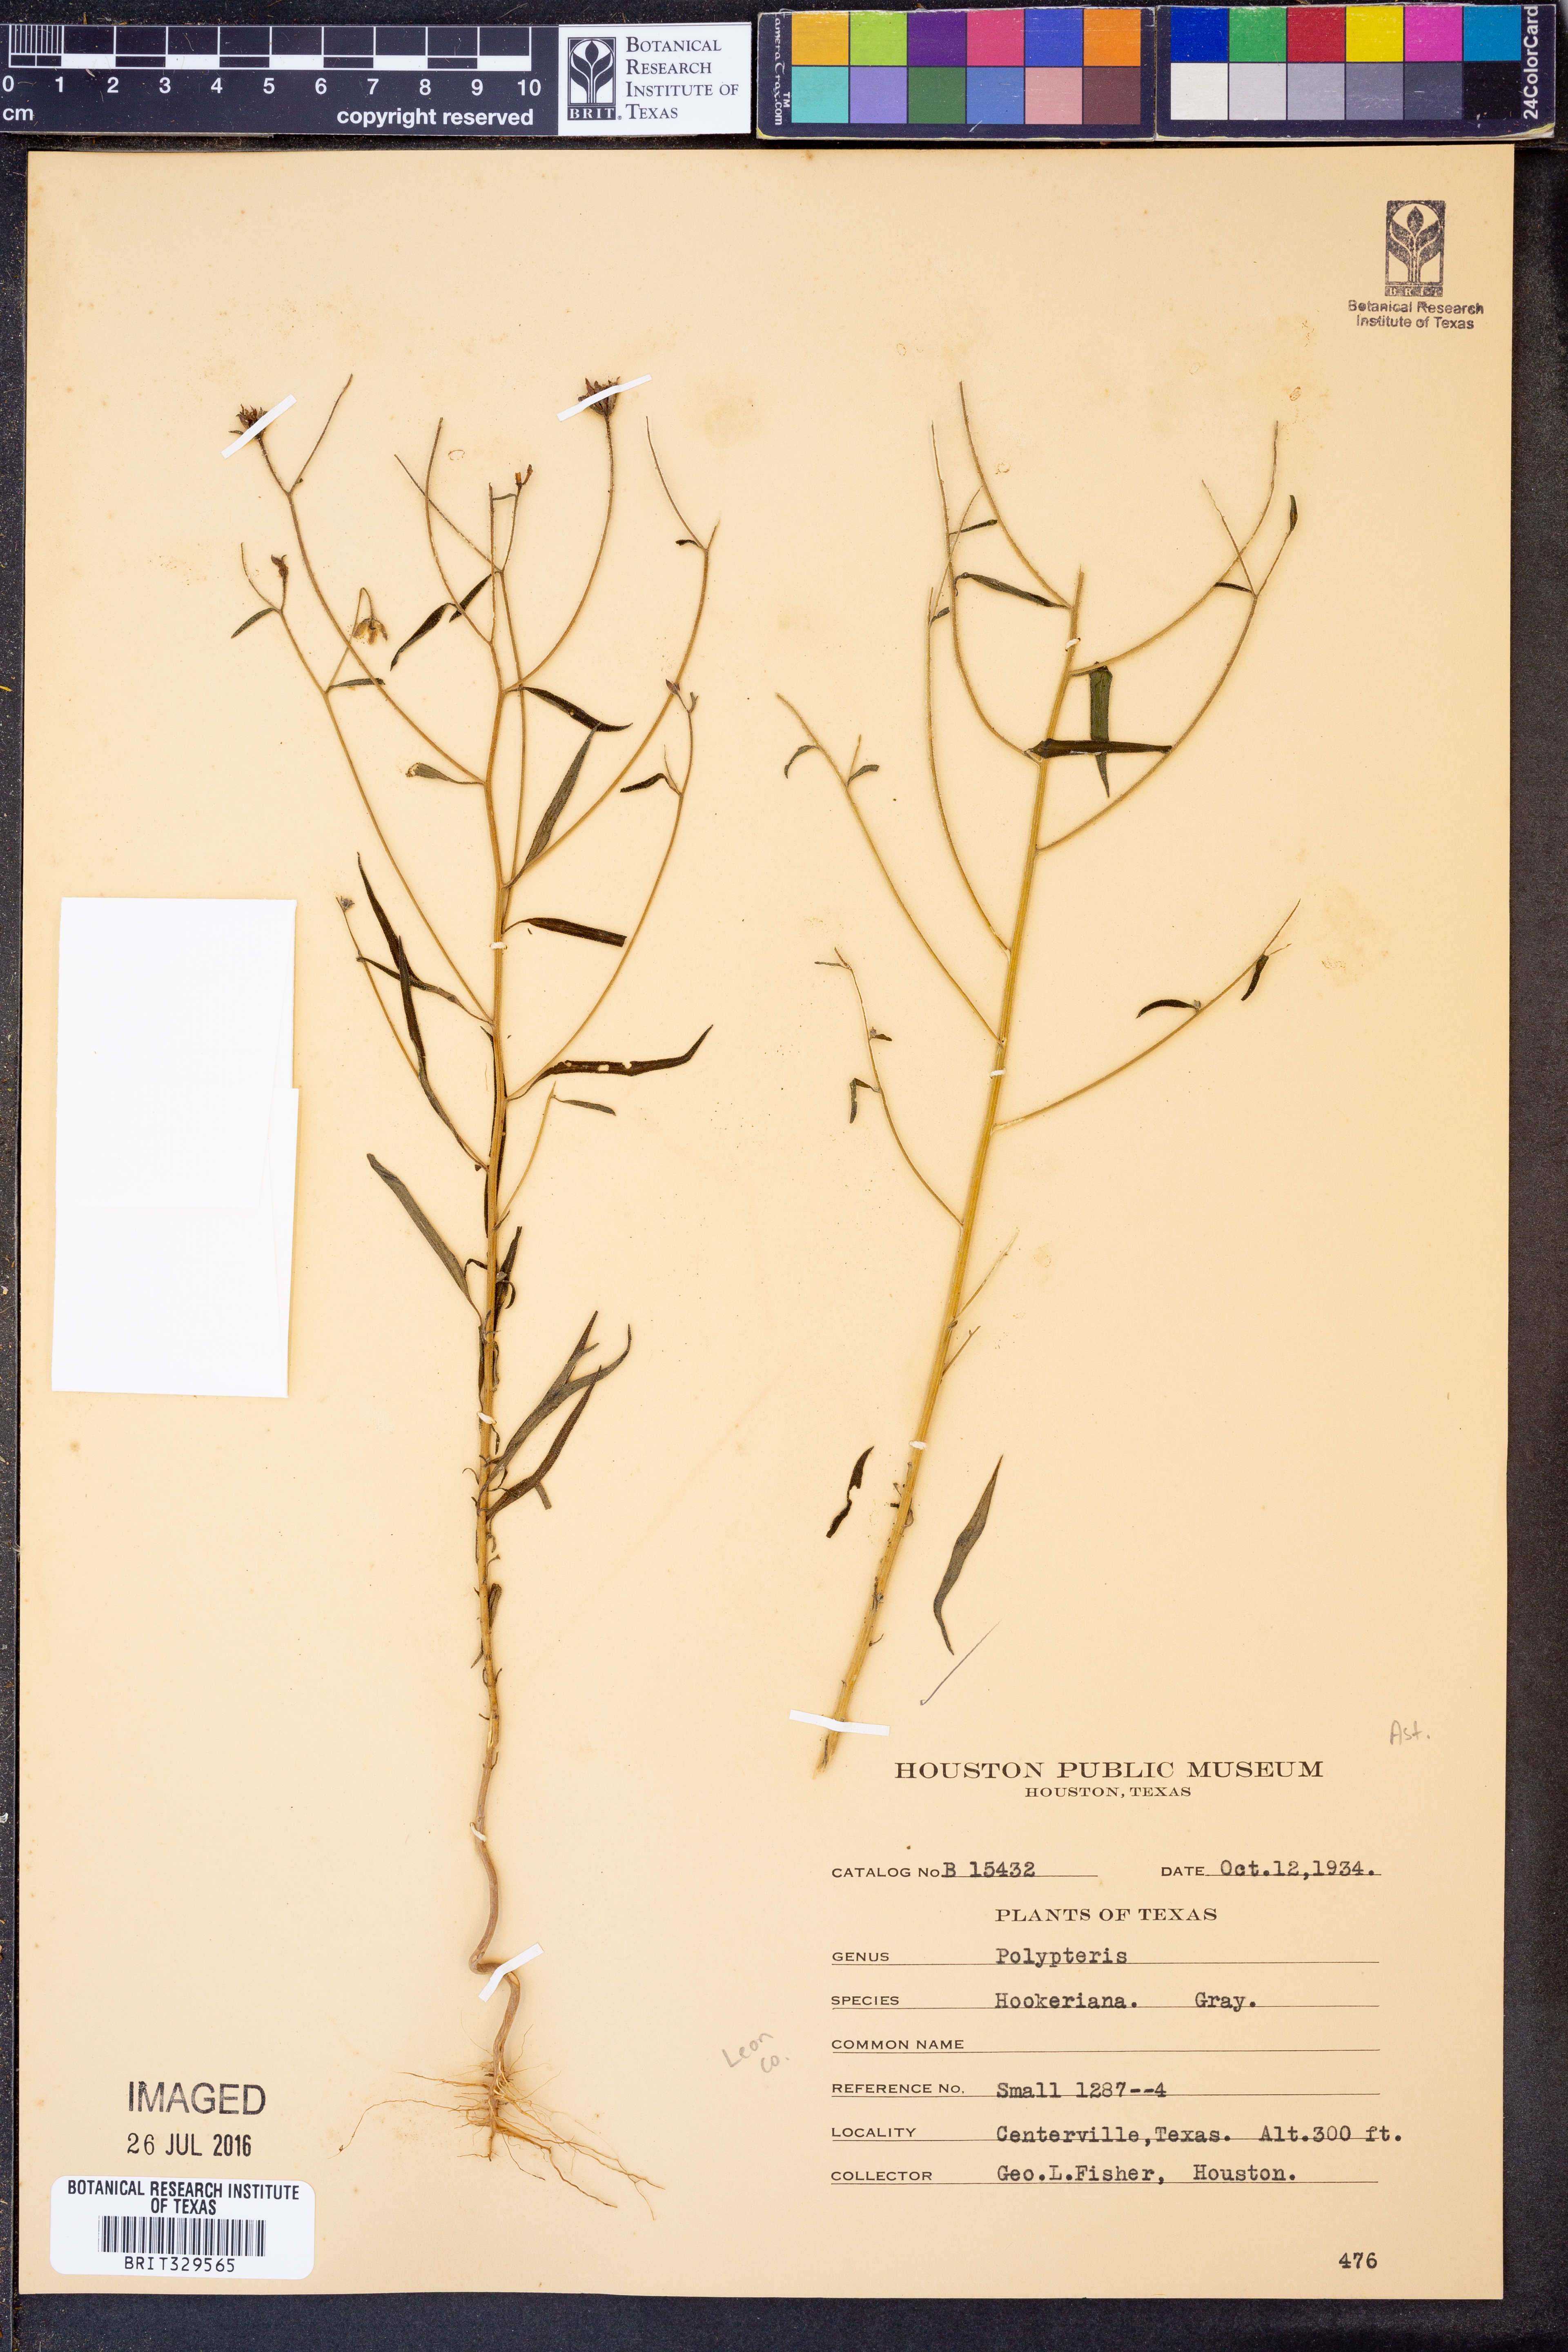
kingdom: Plantae
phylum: Tracheophyta
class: Magnoliopsida
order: Asterales
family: Asteraceae
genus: Palafoxia
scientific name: Palafoxia hookeriana
